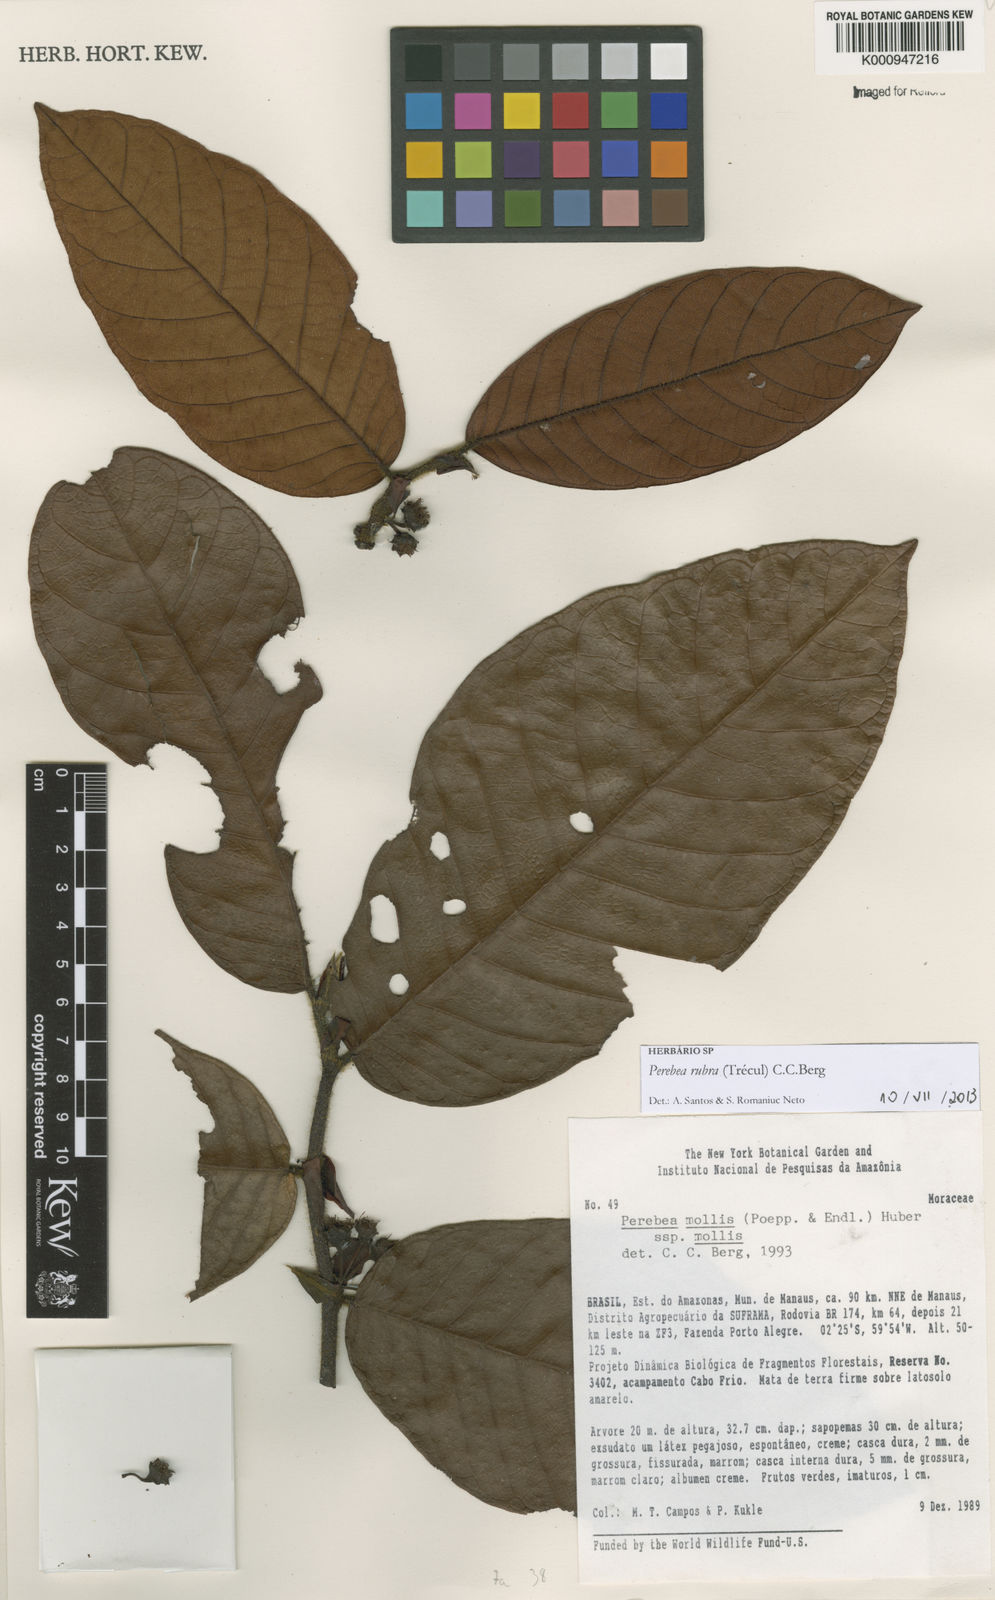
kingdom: Plantae
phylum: Tracheophyta
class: Magnoliopsida
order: Rosales
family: Moraceae
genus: Perebea
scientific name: Perebea
